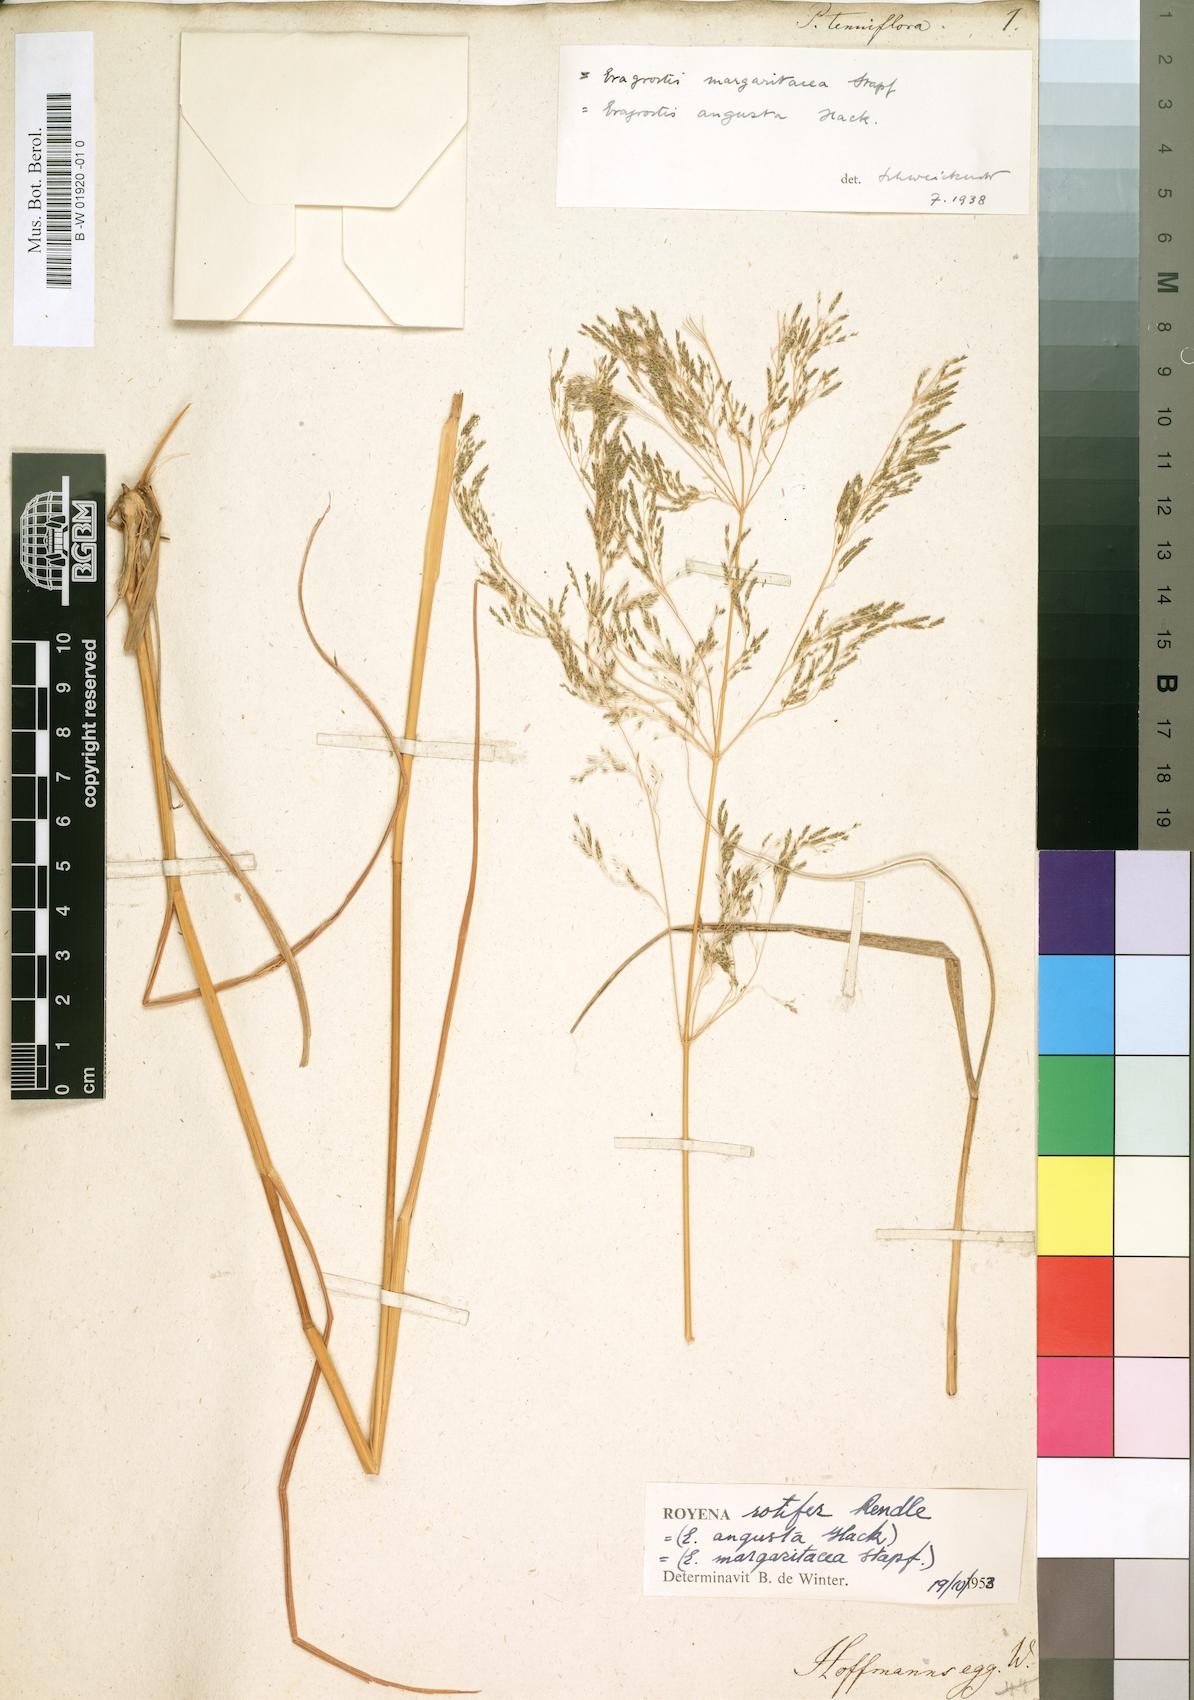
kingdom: Plantae
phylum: Tracheophyta
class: Liliopsida
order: Poales
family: Poaceae
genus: Eragrostis
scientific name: Eragrostis
